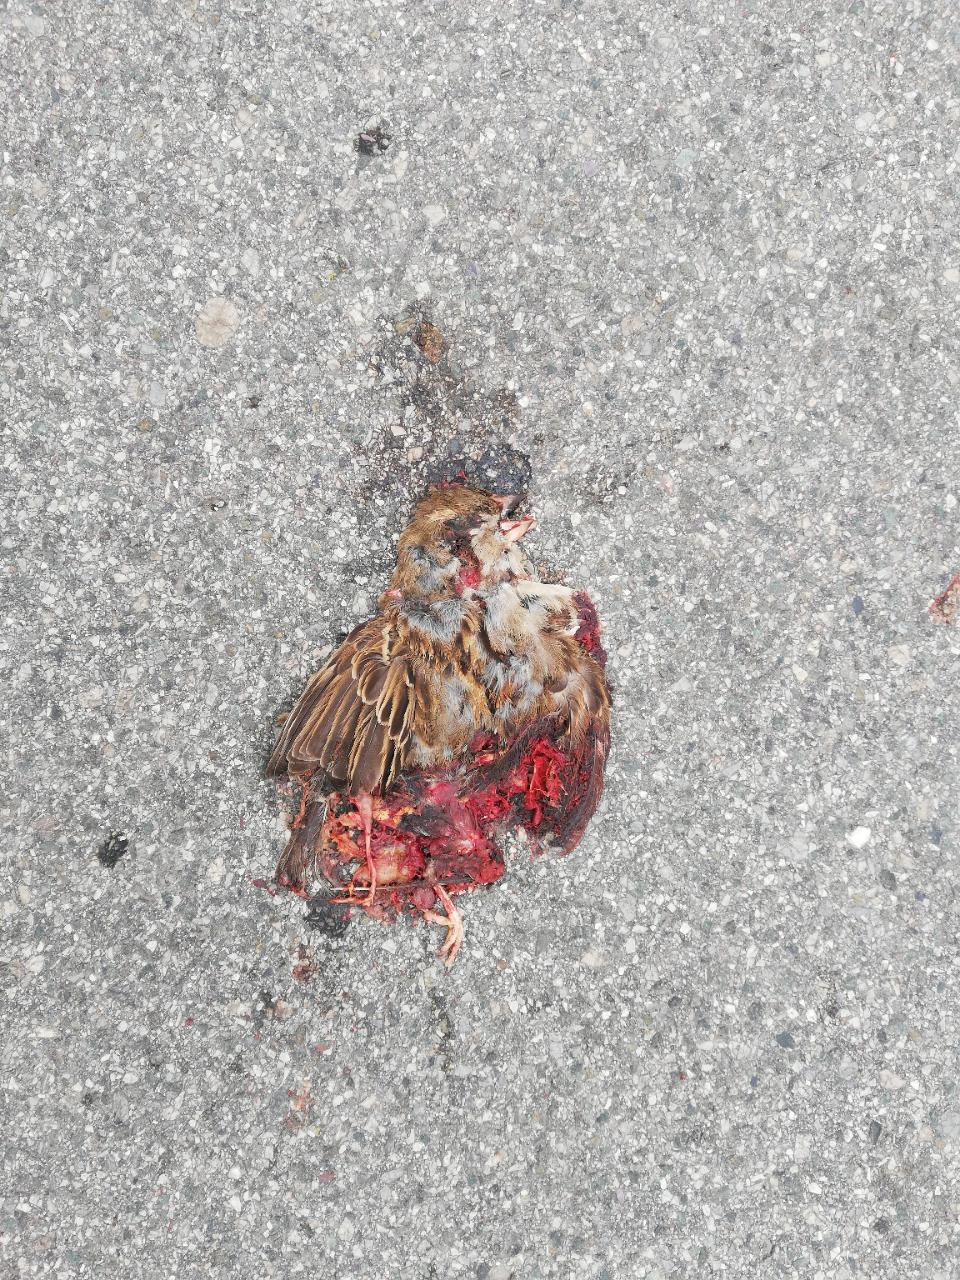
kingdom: Animalia
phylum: Chordata
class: Aves
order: Passeriformes
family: Passeridae
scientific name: Passeridae
